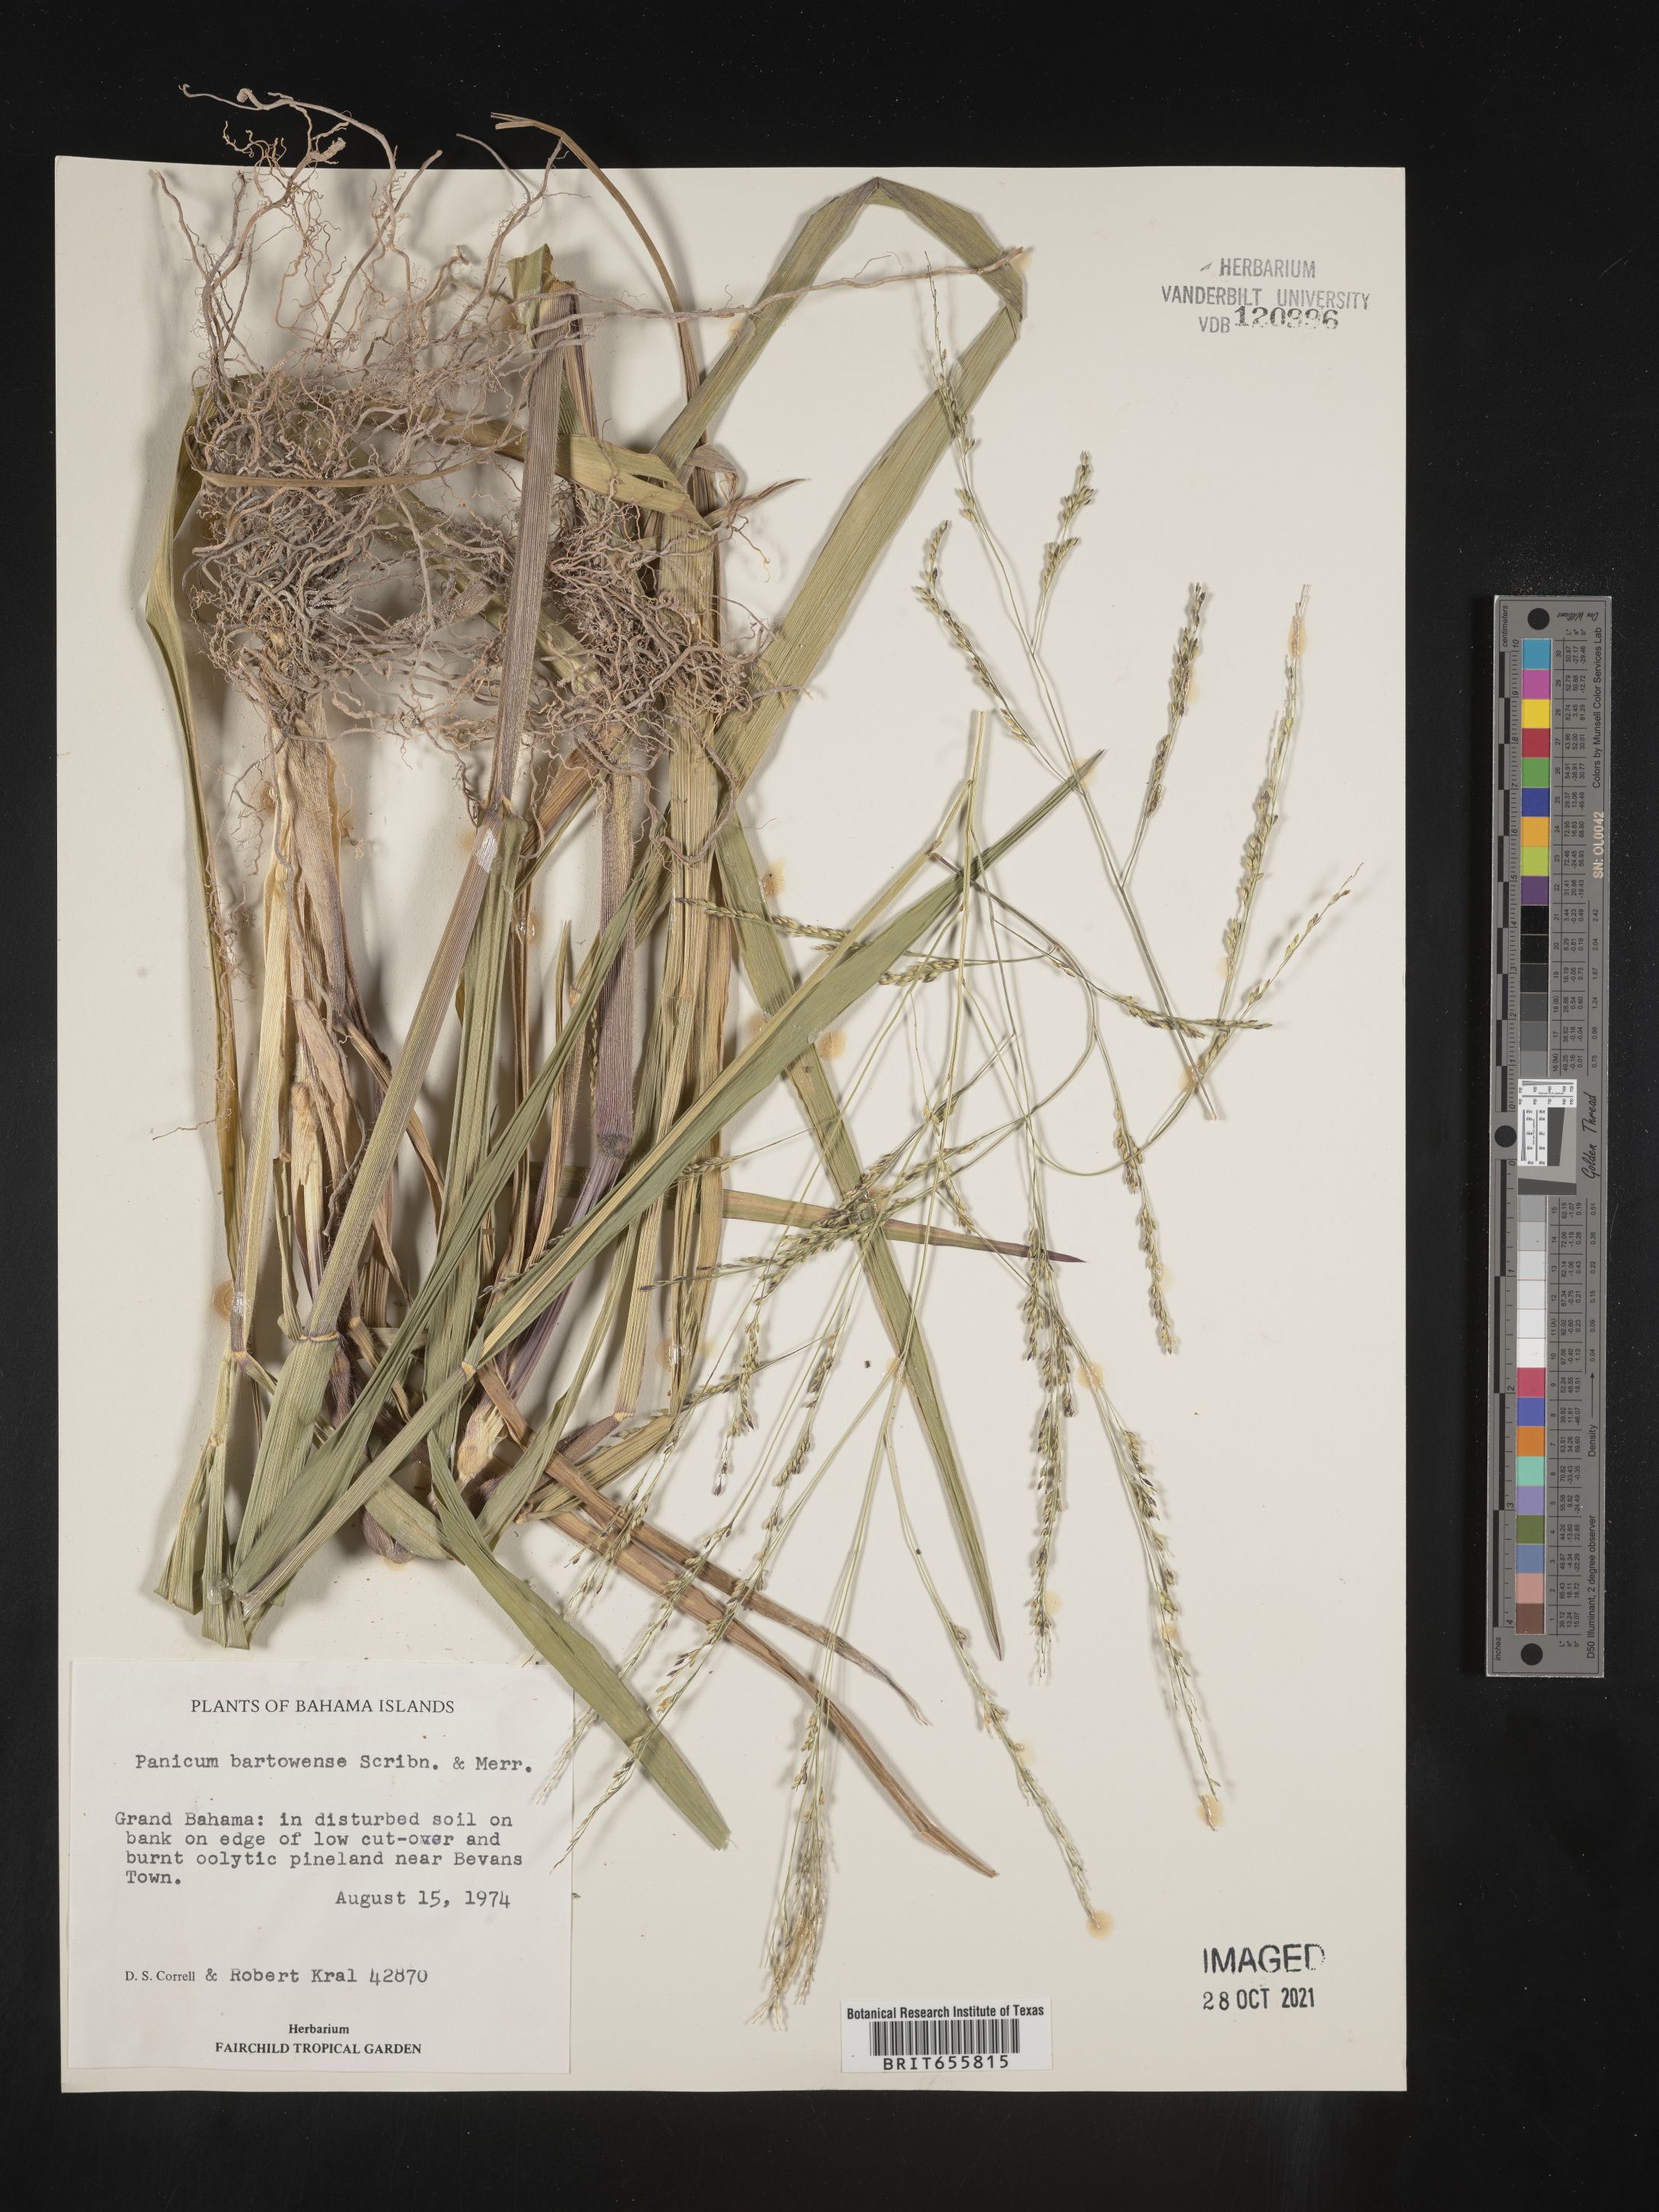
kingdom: Plantae
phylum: Tracheophyta
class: Liliopsida
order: Poales
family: Poaceae
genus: Panicum
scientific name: Panicum
